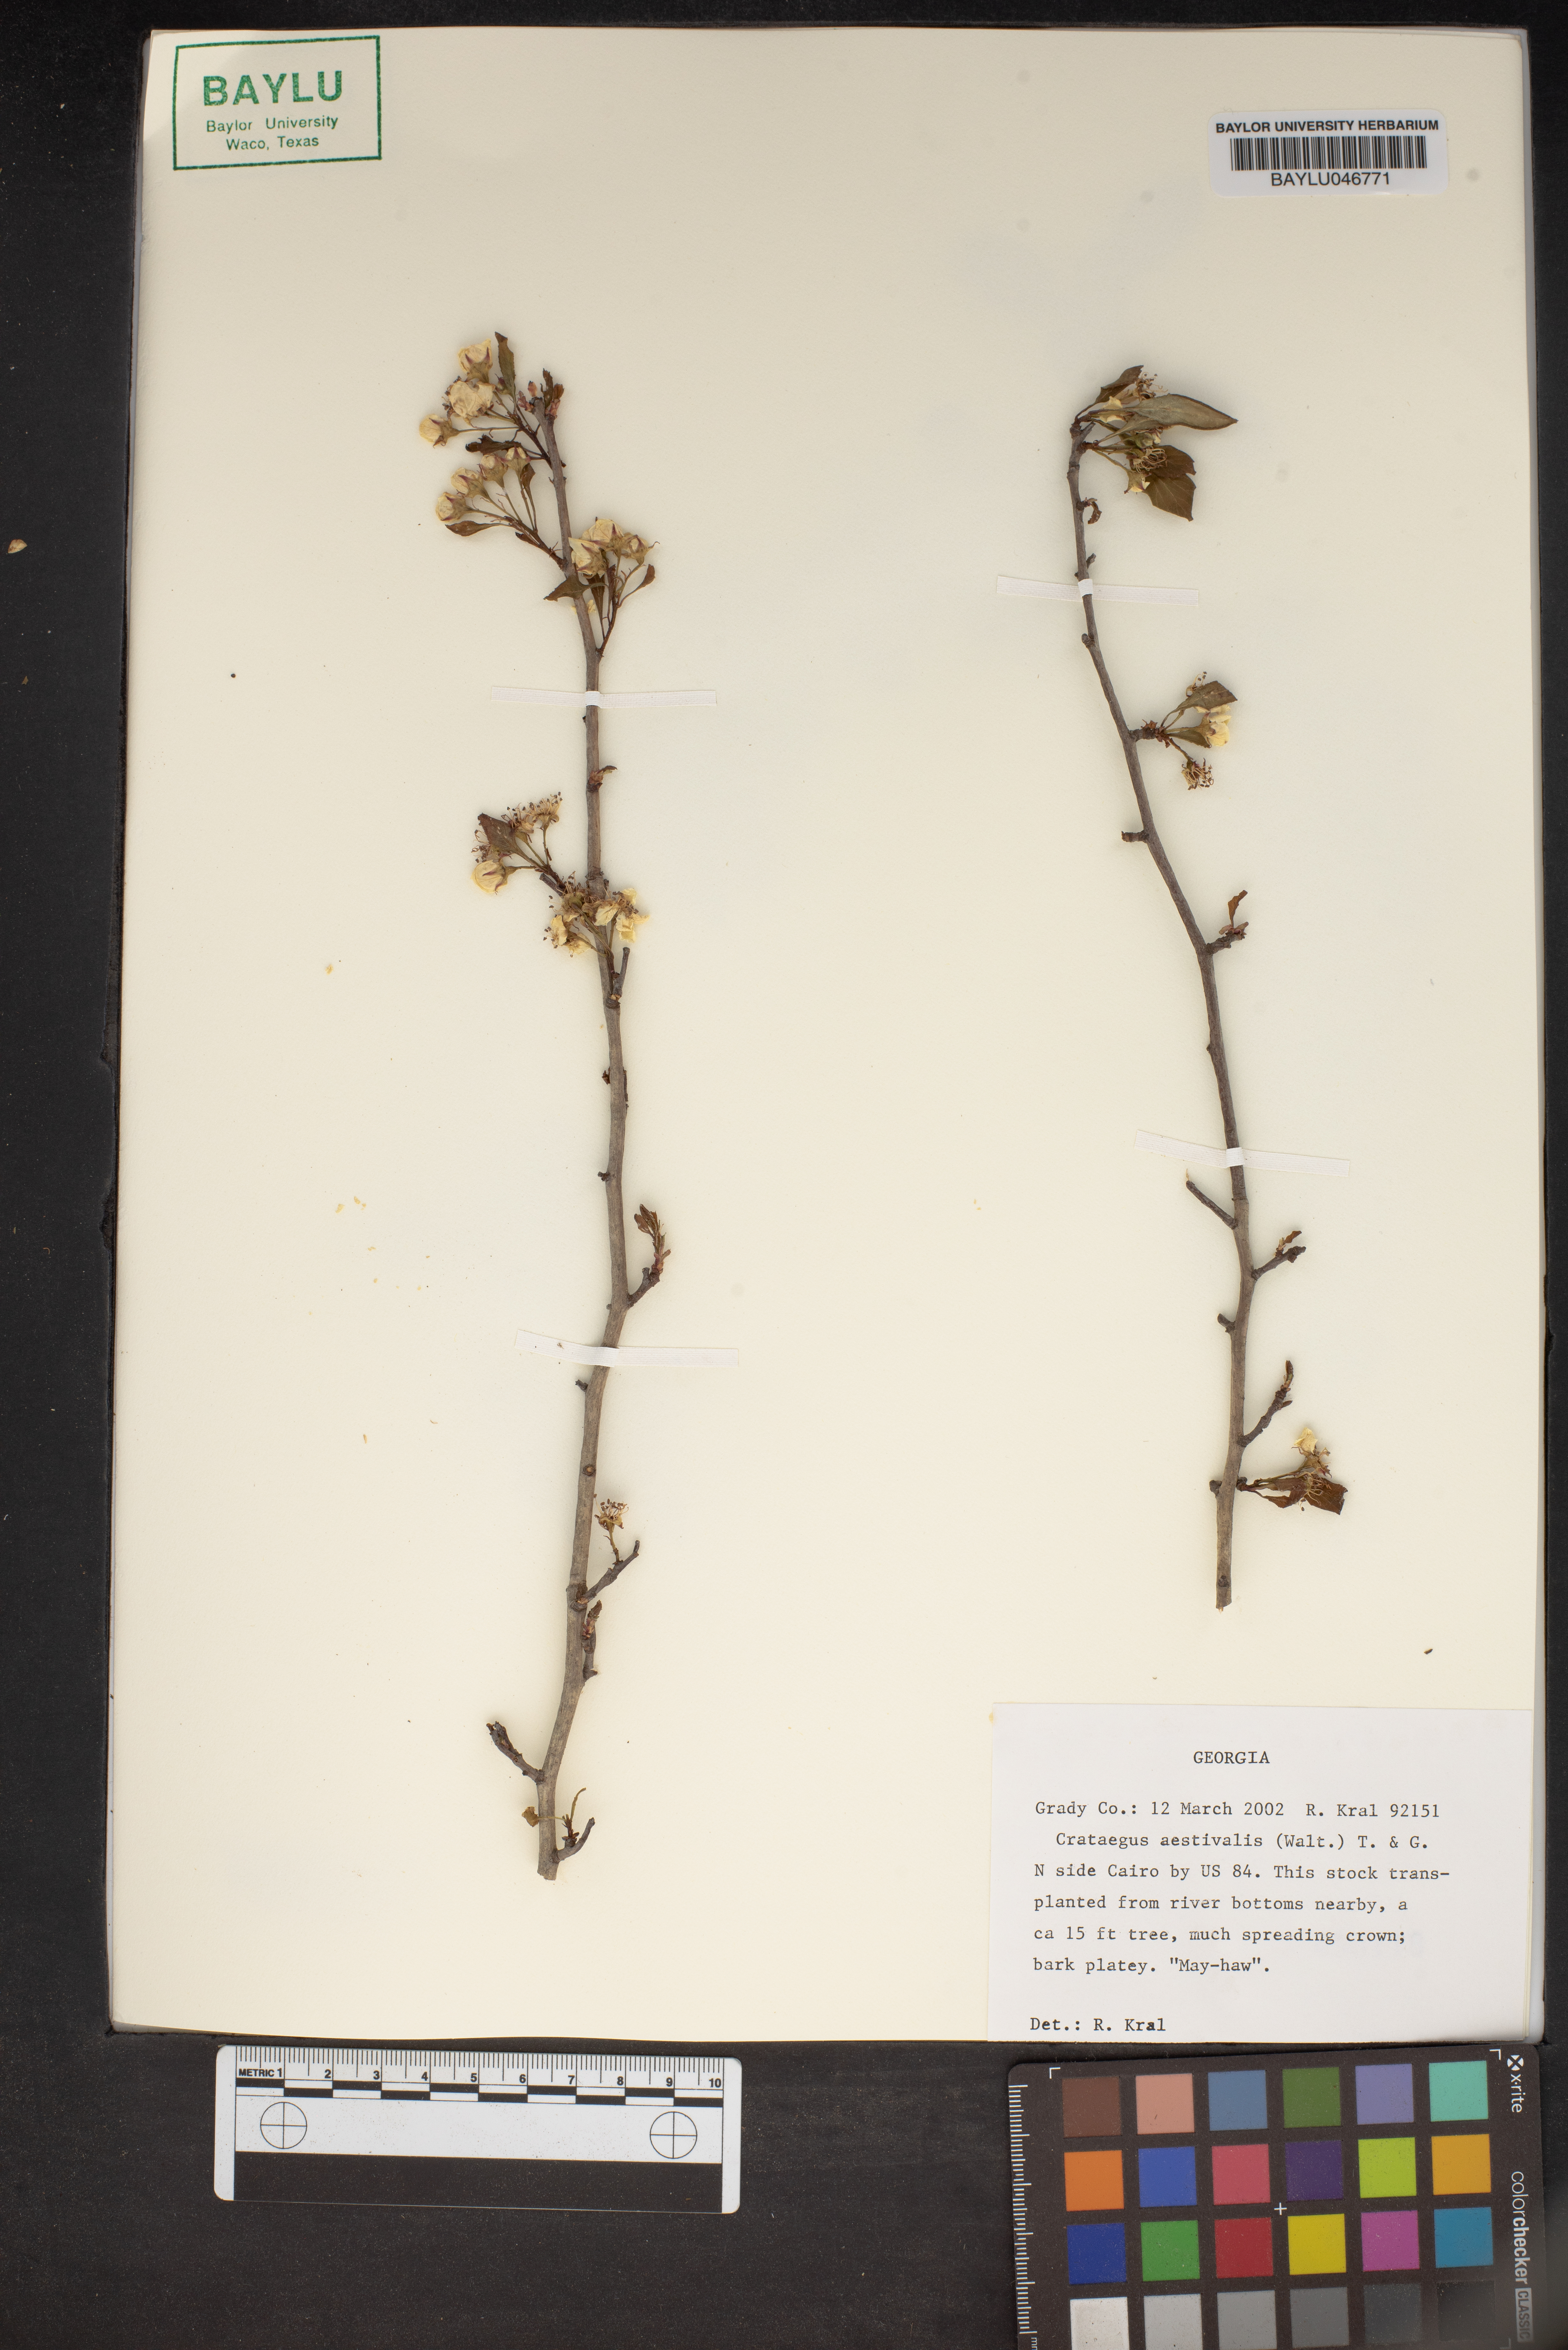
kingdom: Plantae
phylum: Tracheophyta
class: Magnoliopsida
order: Rosales
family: Rosaceae
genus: Crataegus
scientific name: Crataegus aestivalis
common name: Mayhaw
